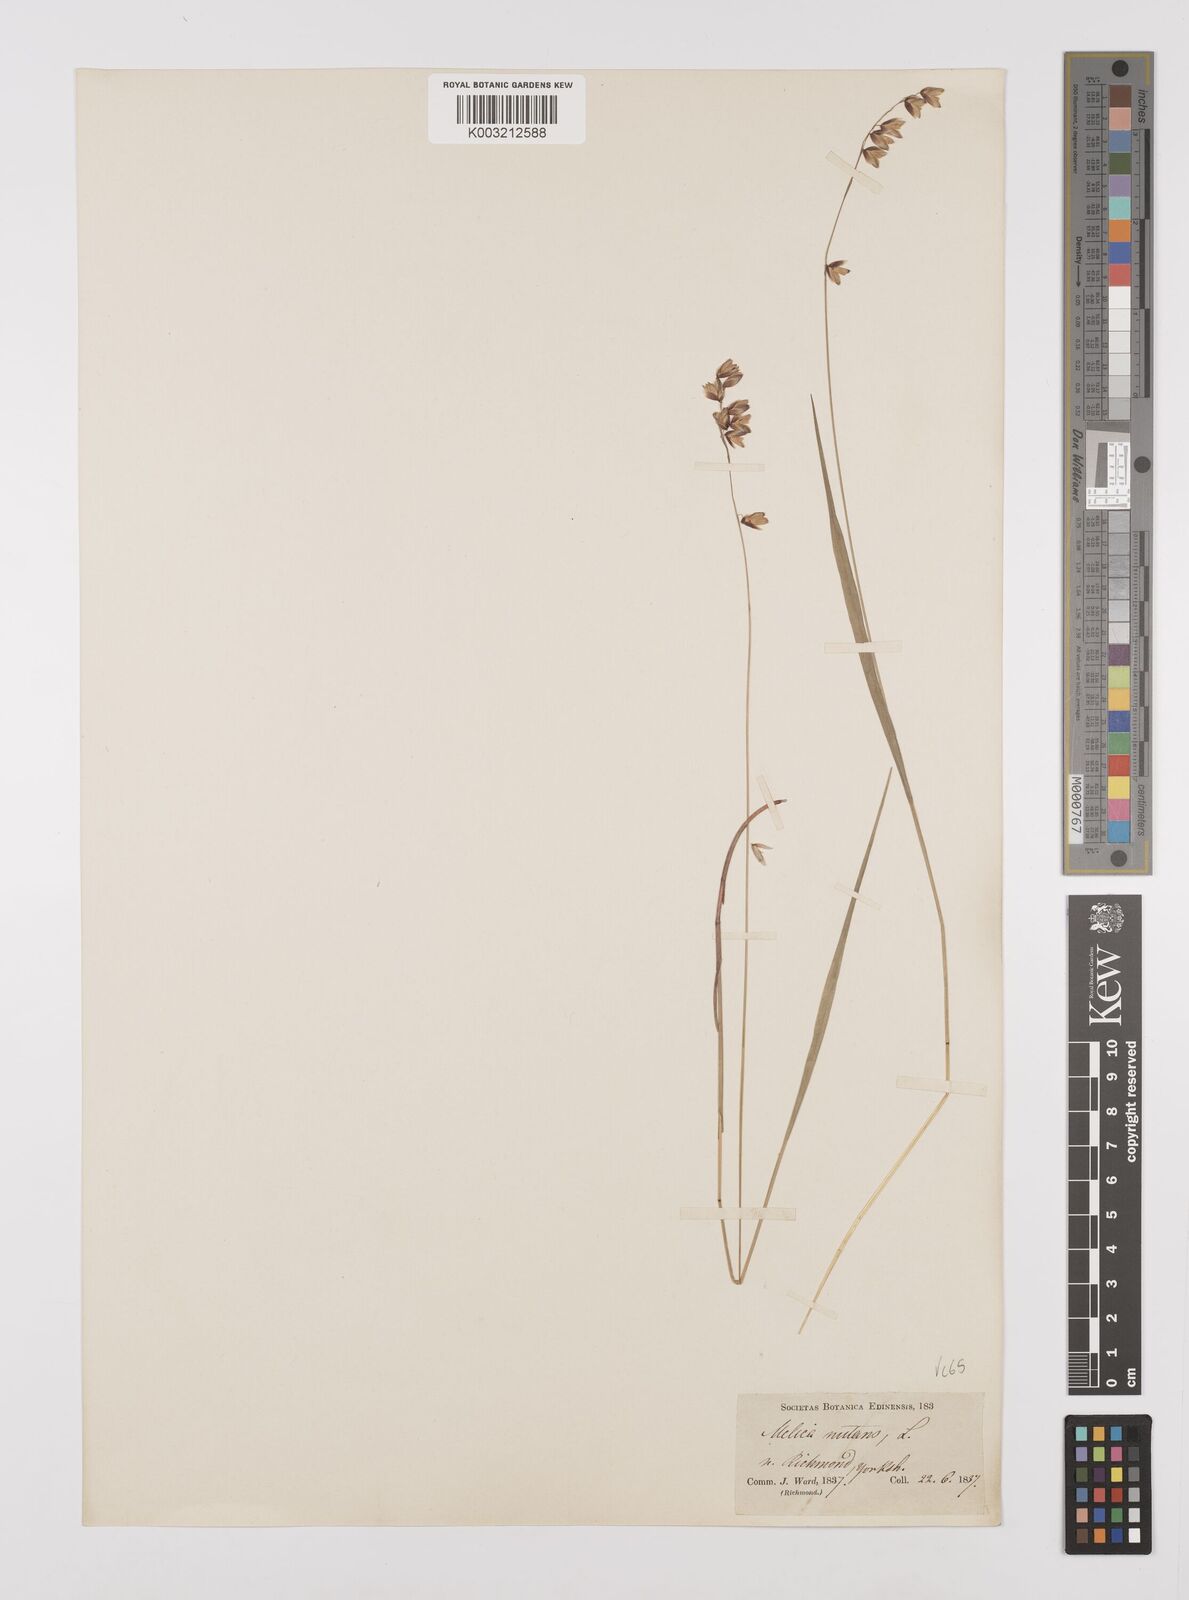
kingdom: Plantae
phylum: Tracheophyta
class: Liliopsida
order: Poales
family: Poaceae
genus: Melica
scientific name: Melica
